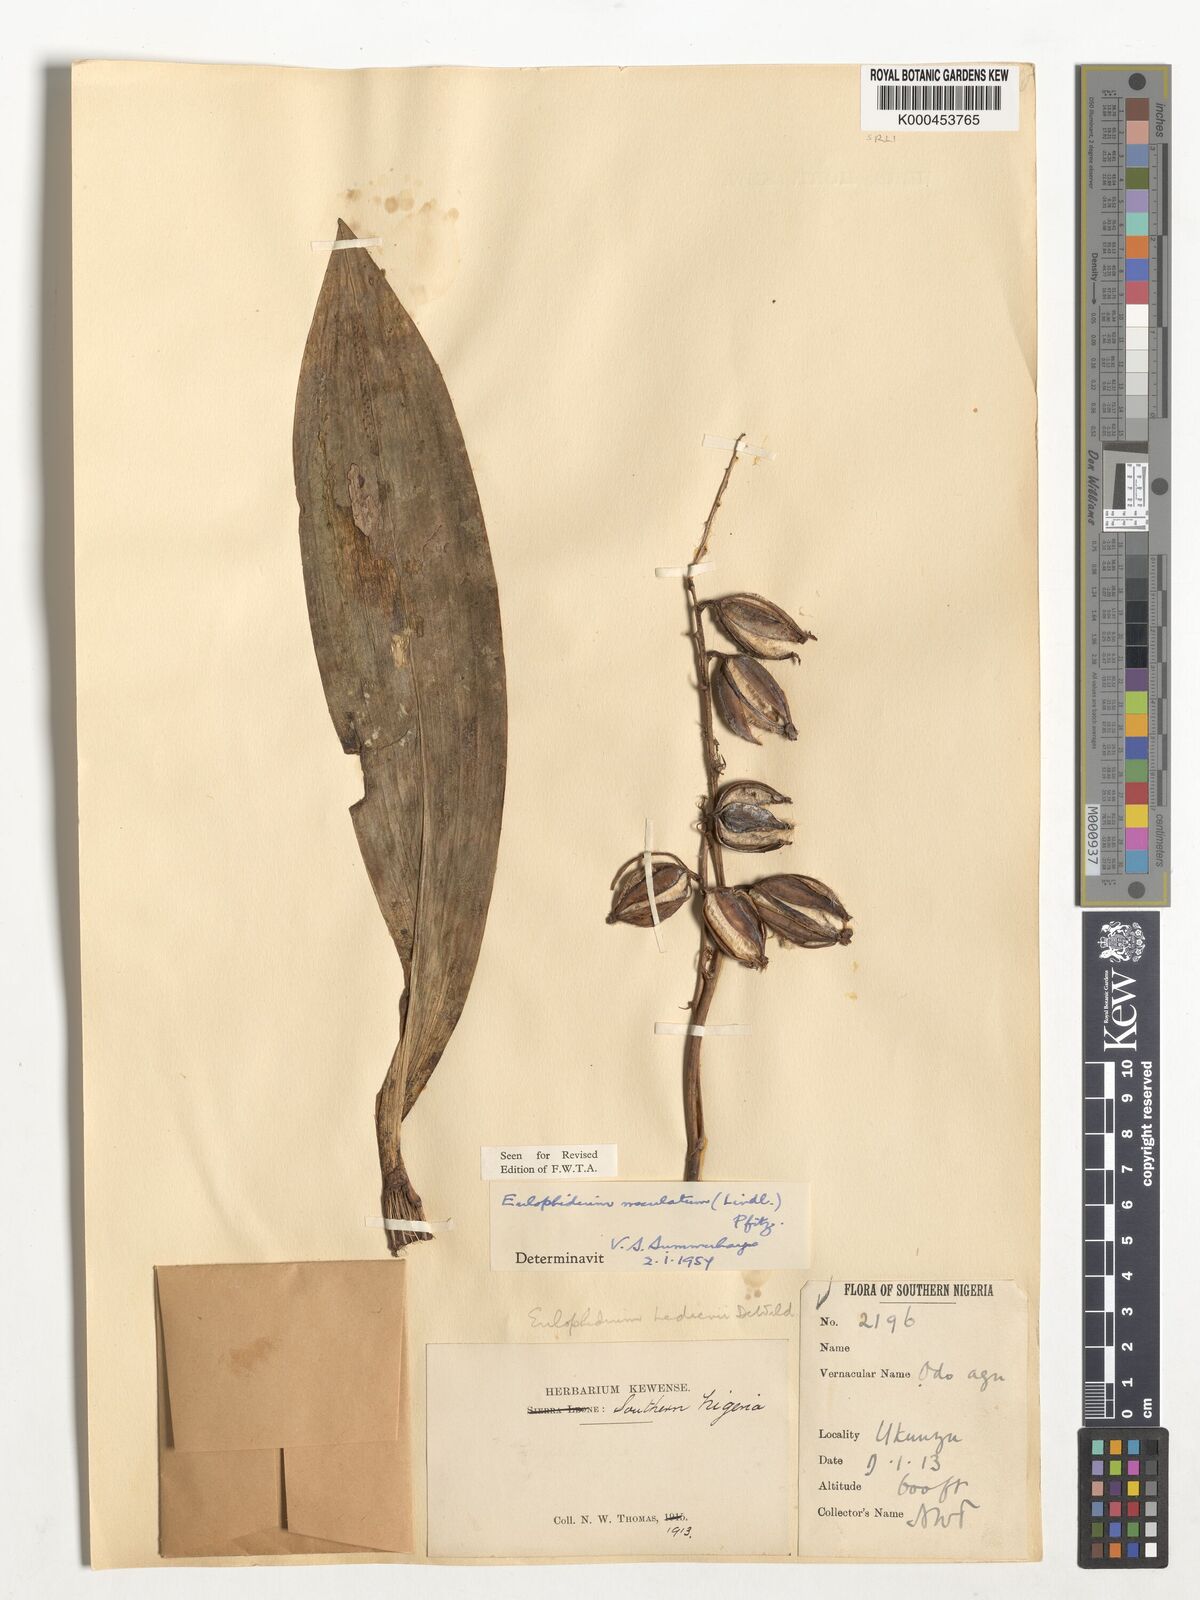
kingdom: Plantae
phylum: Tracheophyta
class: Liliopsida
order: Asparagales
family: Orchidaceae
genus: Eulophia
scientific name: Eulophia maculata
